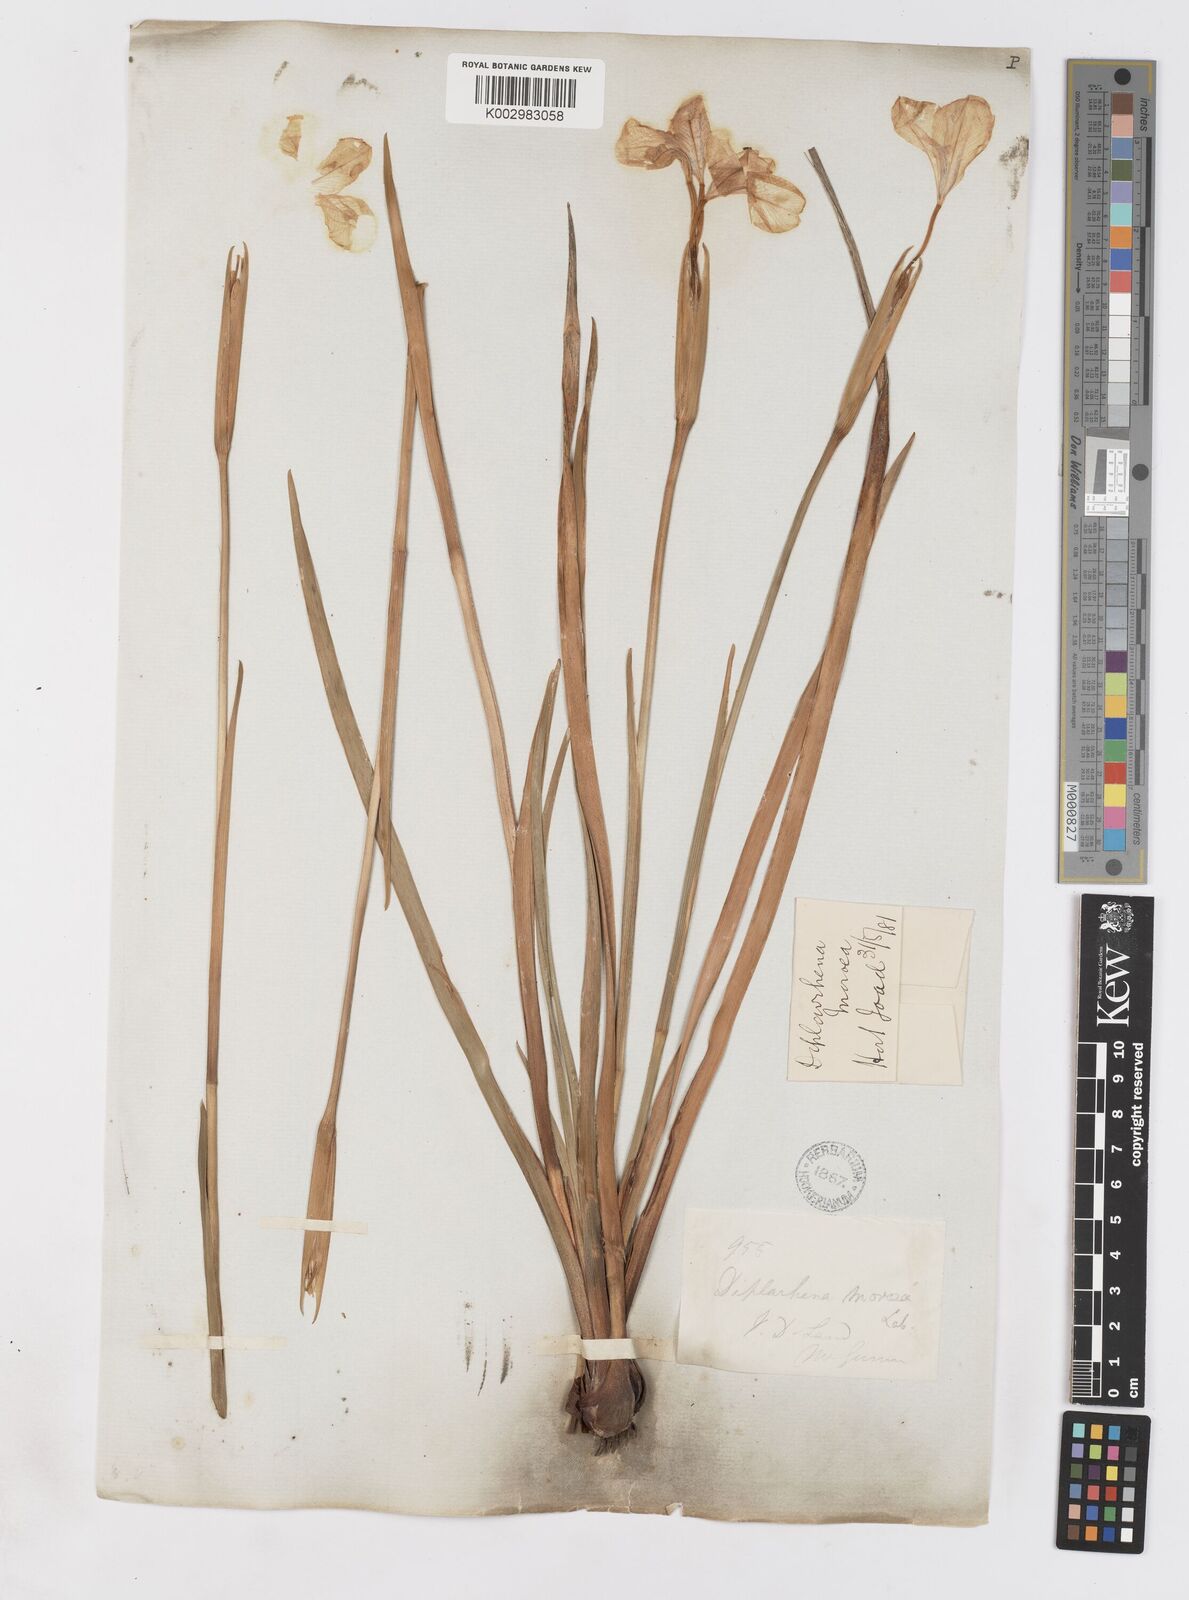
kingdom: Plantae
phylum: Tracheophyta
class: Liliopsida
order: Asparagales
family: Iridaceae
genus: Diplarrena
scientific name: Diplarrena moraea
